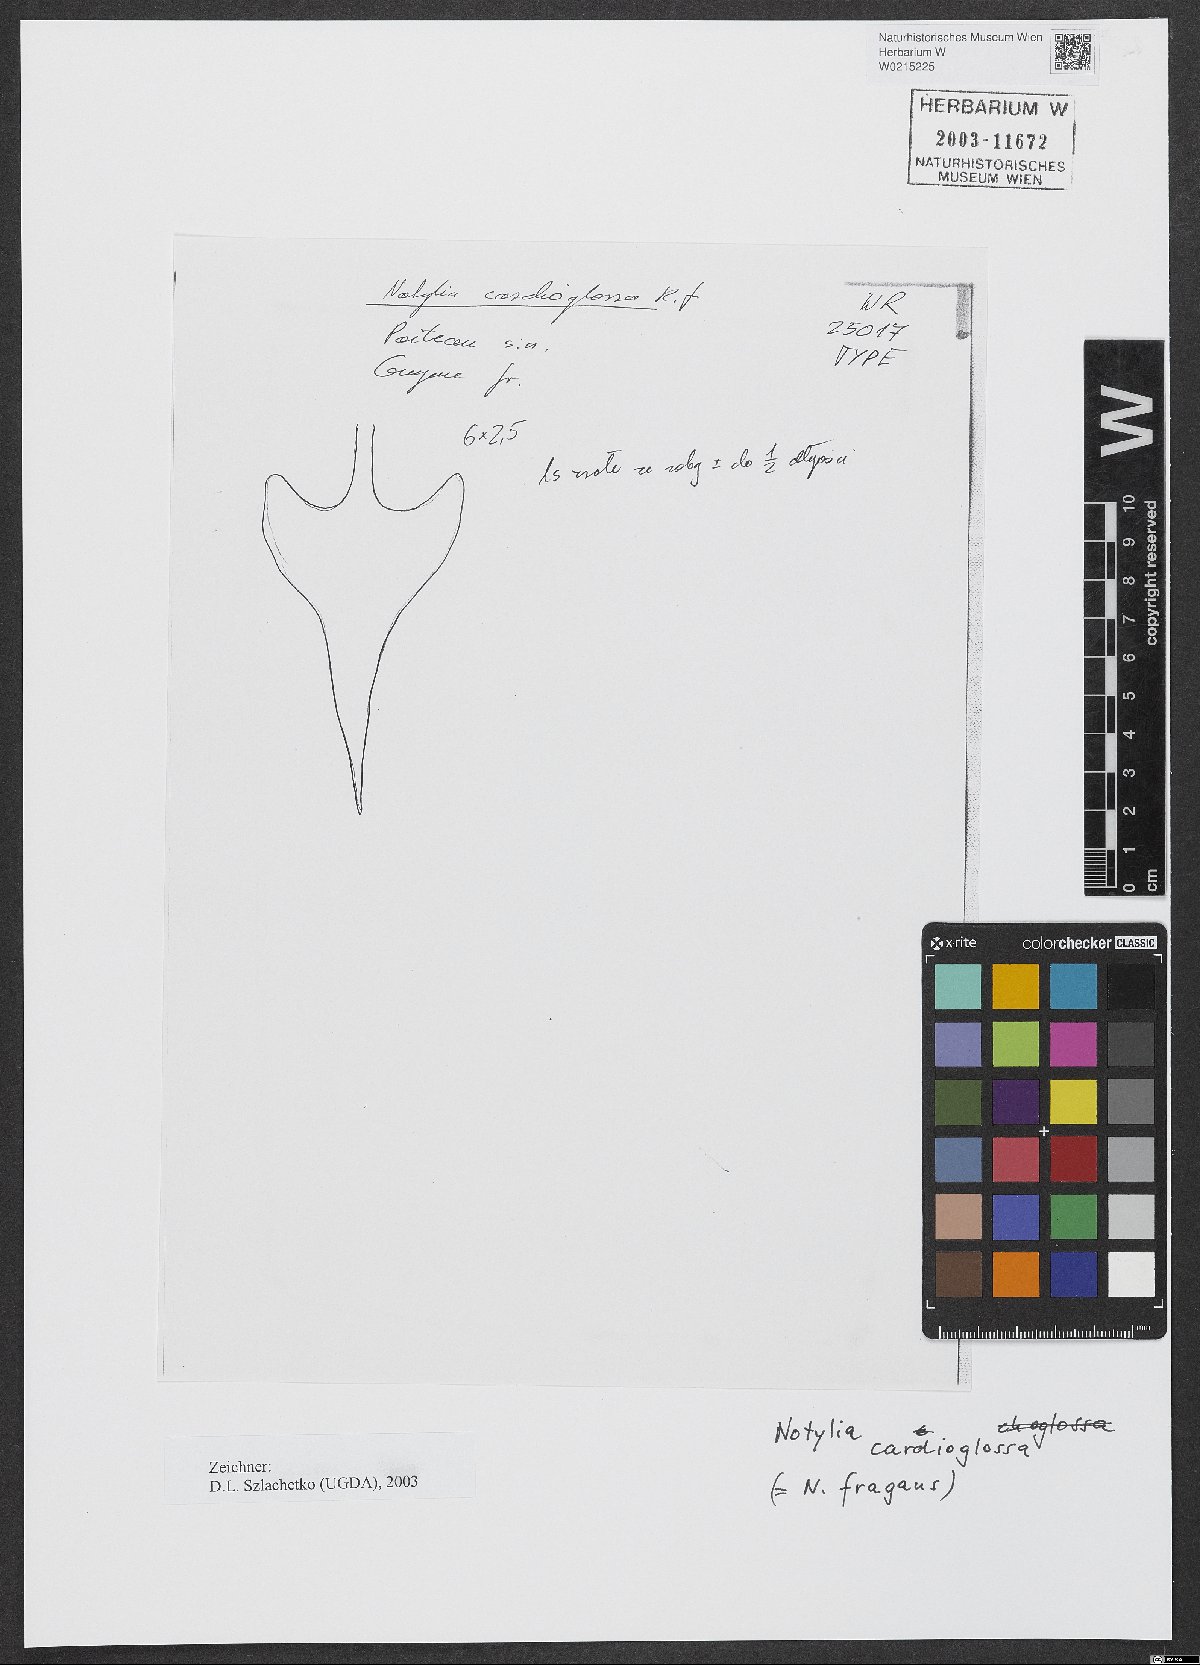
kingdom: Plantae
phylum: Tracheophyta
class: Liliopsida
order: Asparagales
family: Orchidaceae
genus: Notylia
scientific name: Notylia fragrans
